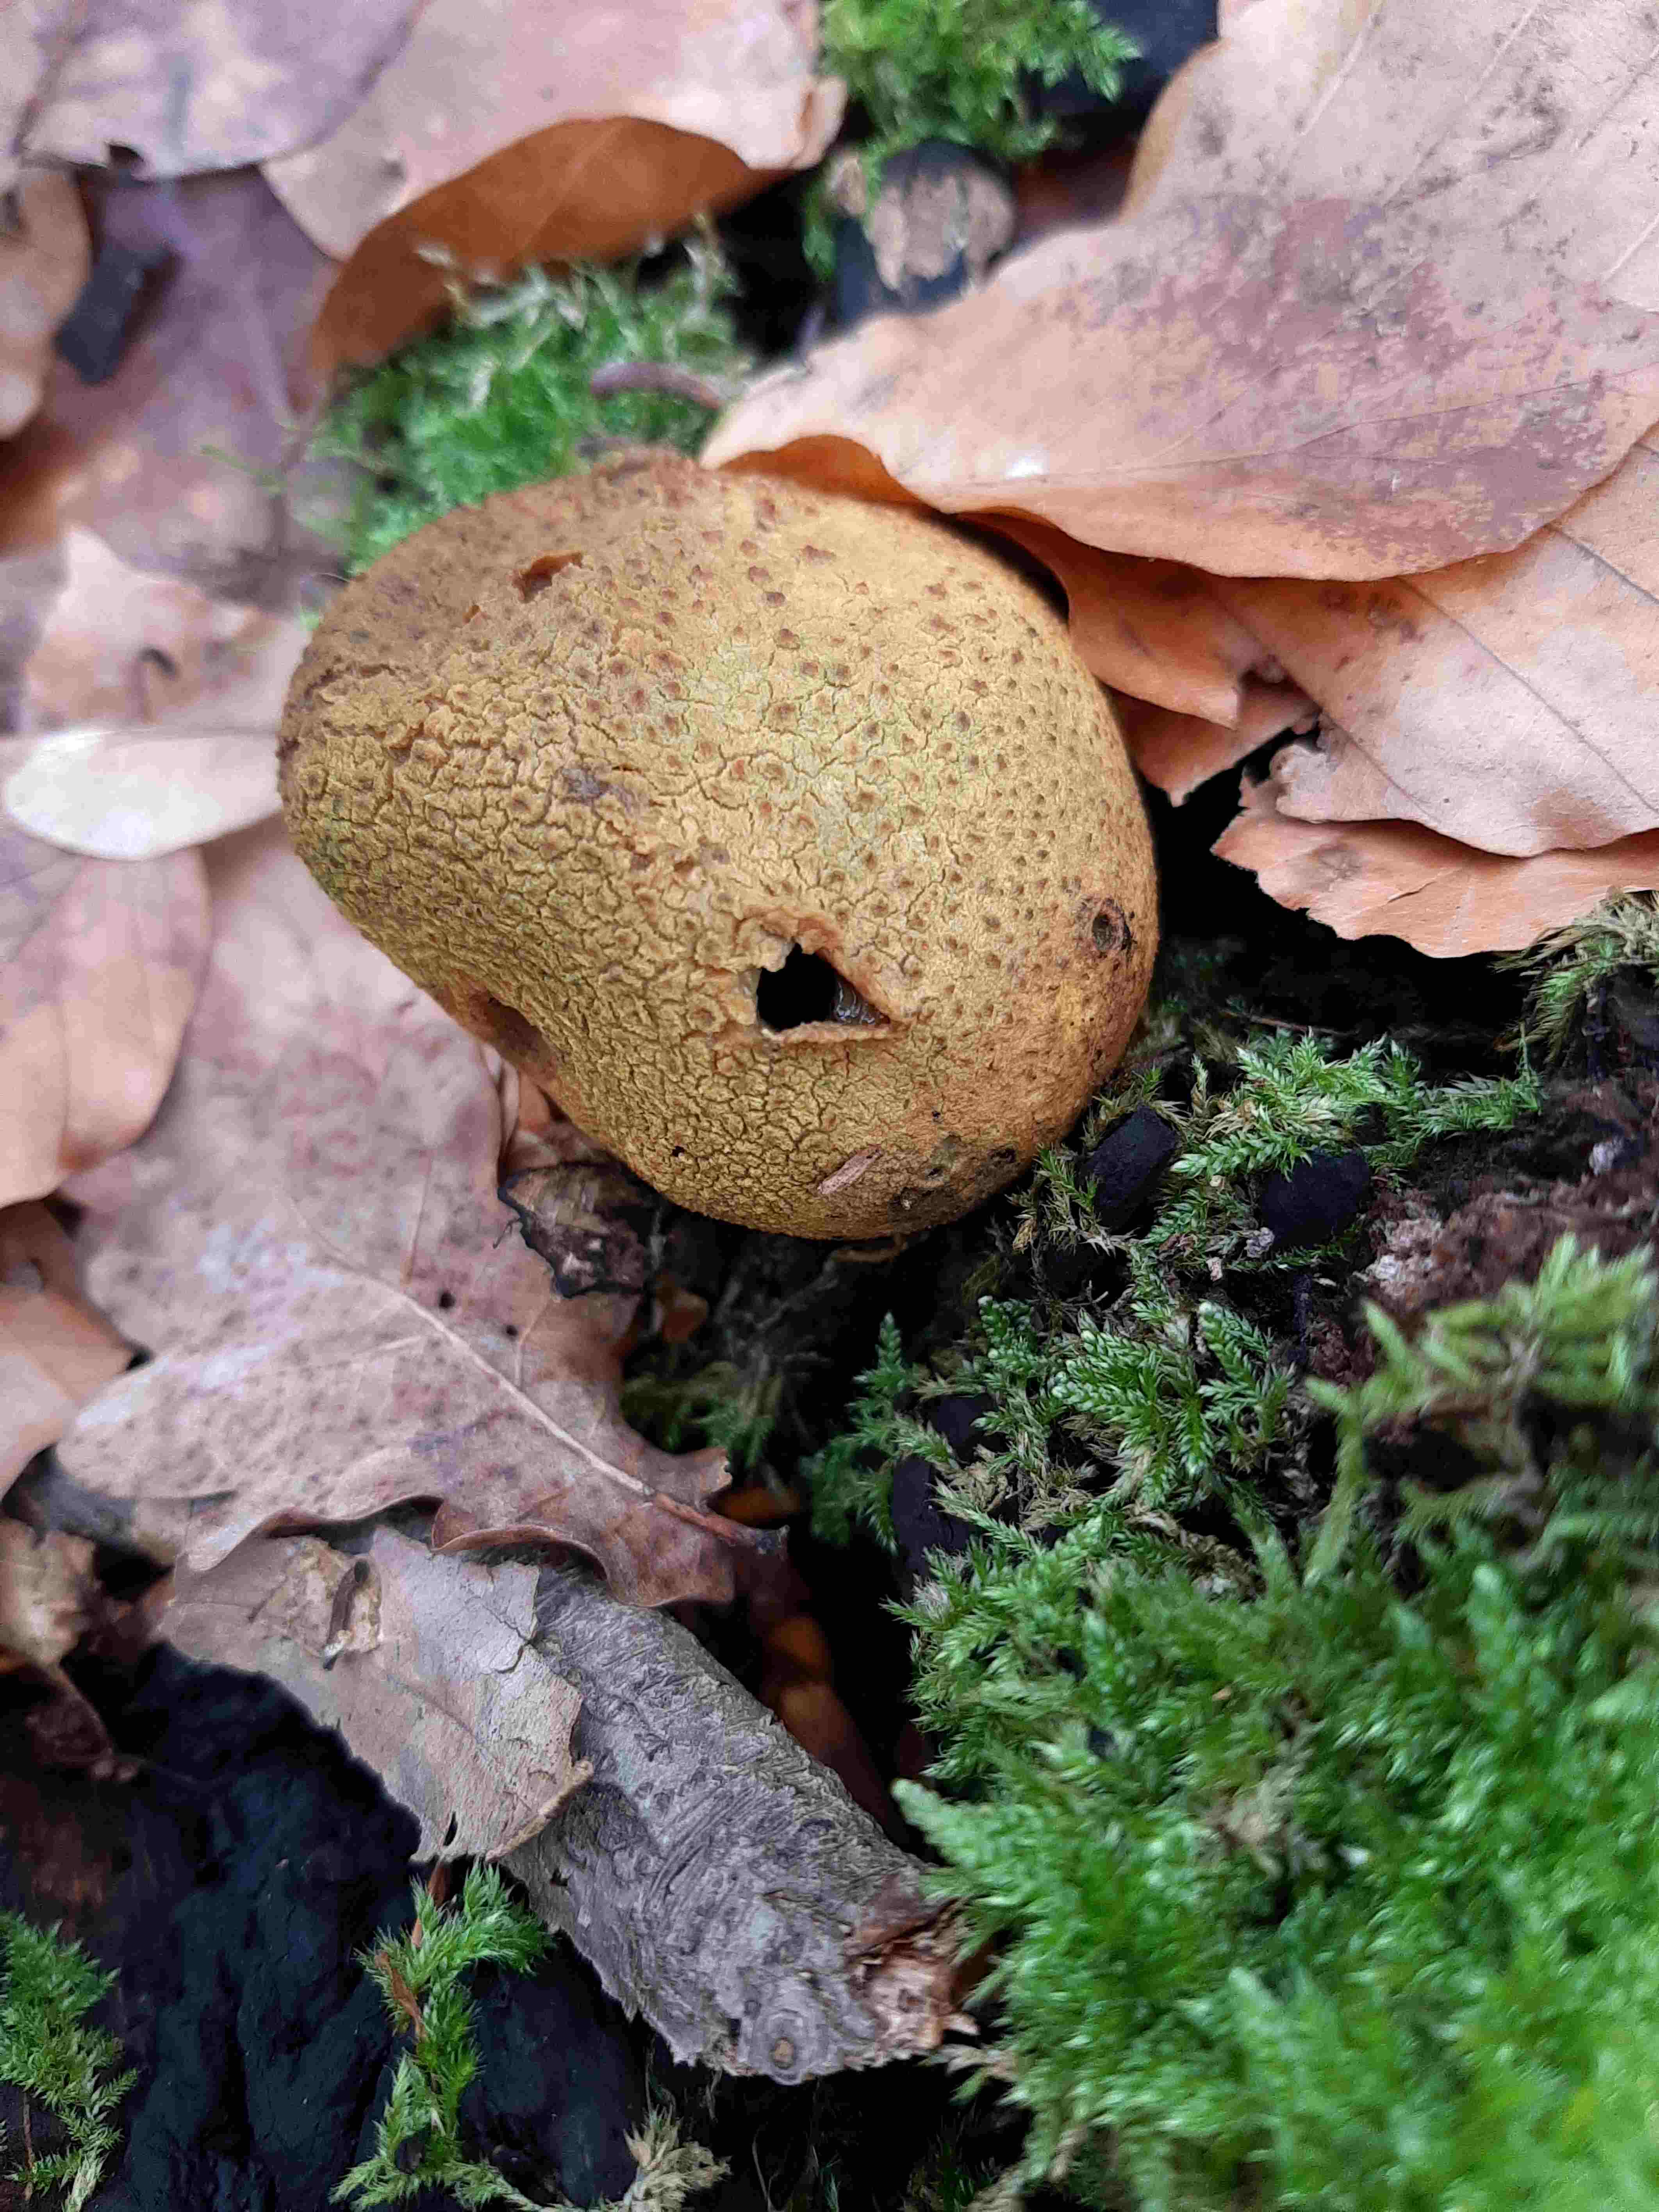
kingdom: Fungi
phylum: Basidiomycota
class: Agaricomycetes
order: Boletales
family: Sclerodermataceae
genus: Scleroderma
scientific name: Scleroderma citrinum
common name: almindelig bruskbold
